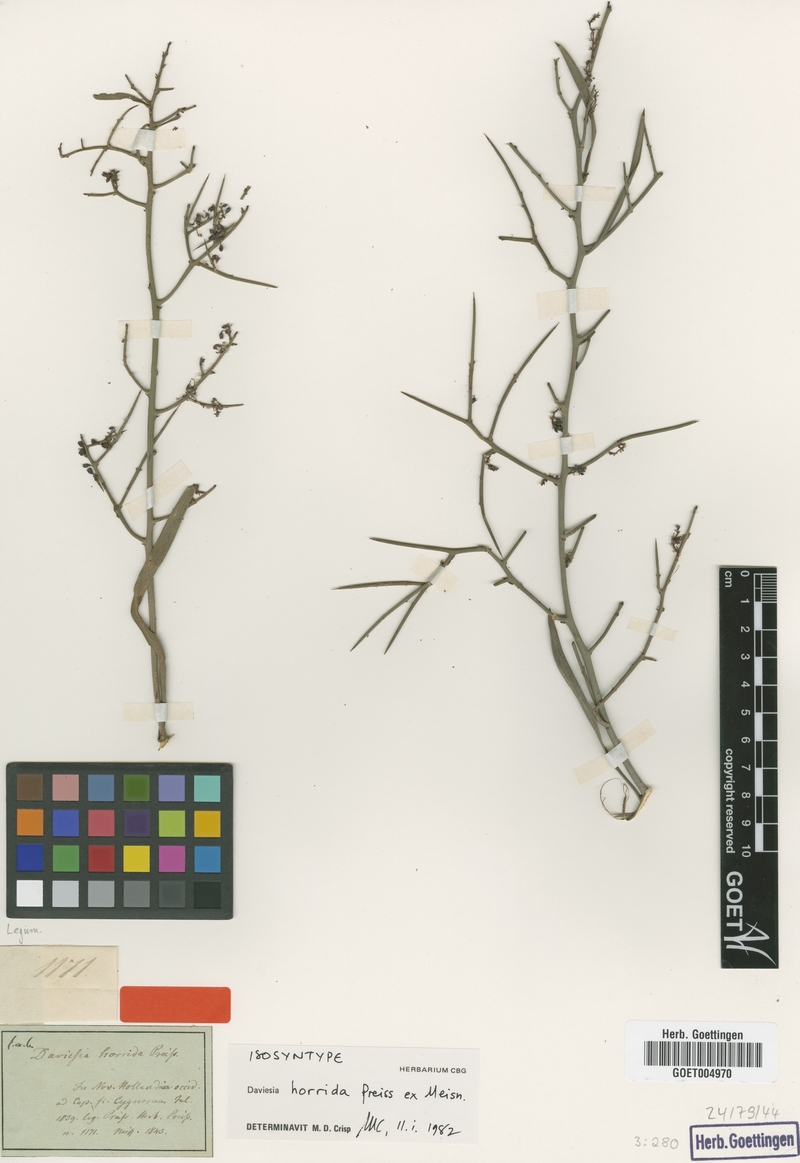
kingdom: Plantae
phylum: Tracheophyta
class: Magnoliopsida
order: Fabales
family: Fabaceae
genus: Daviesia
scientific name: Daviesia horrida
